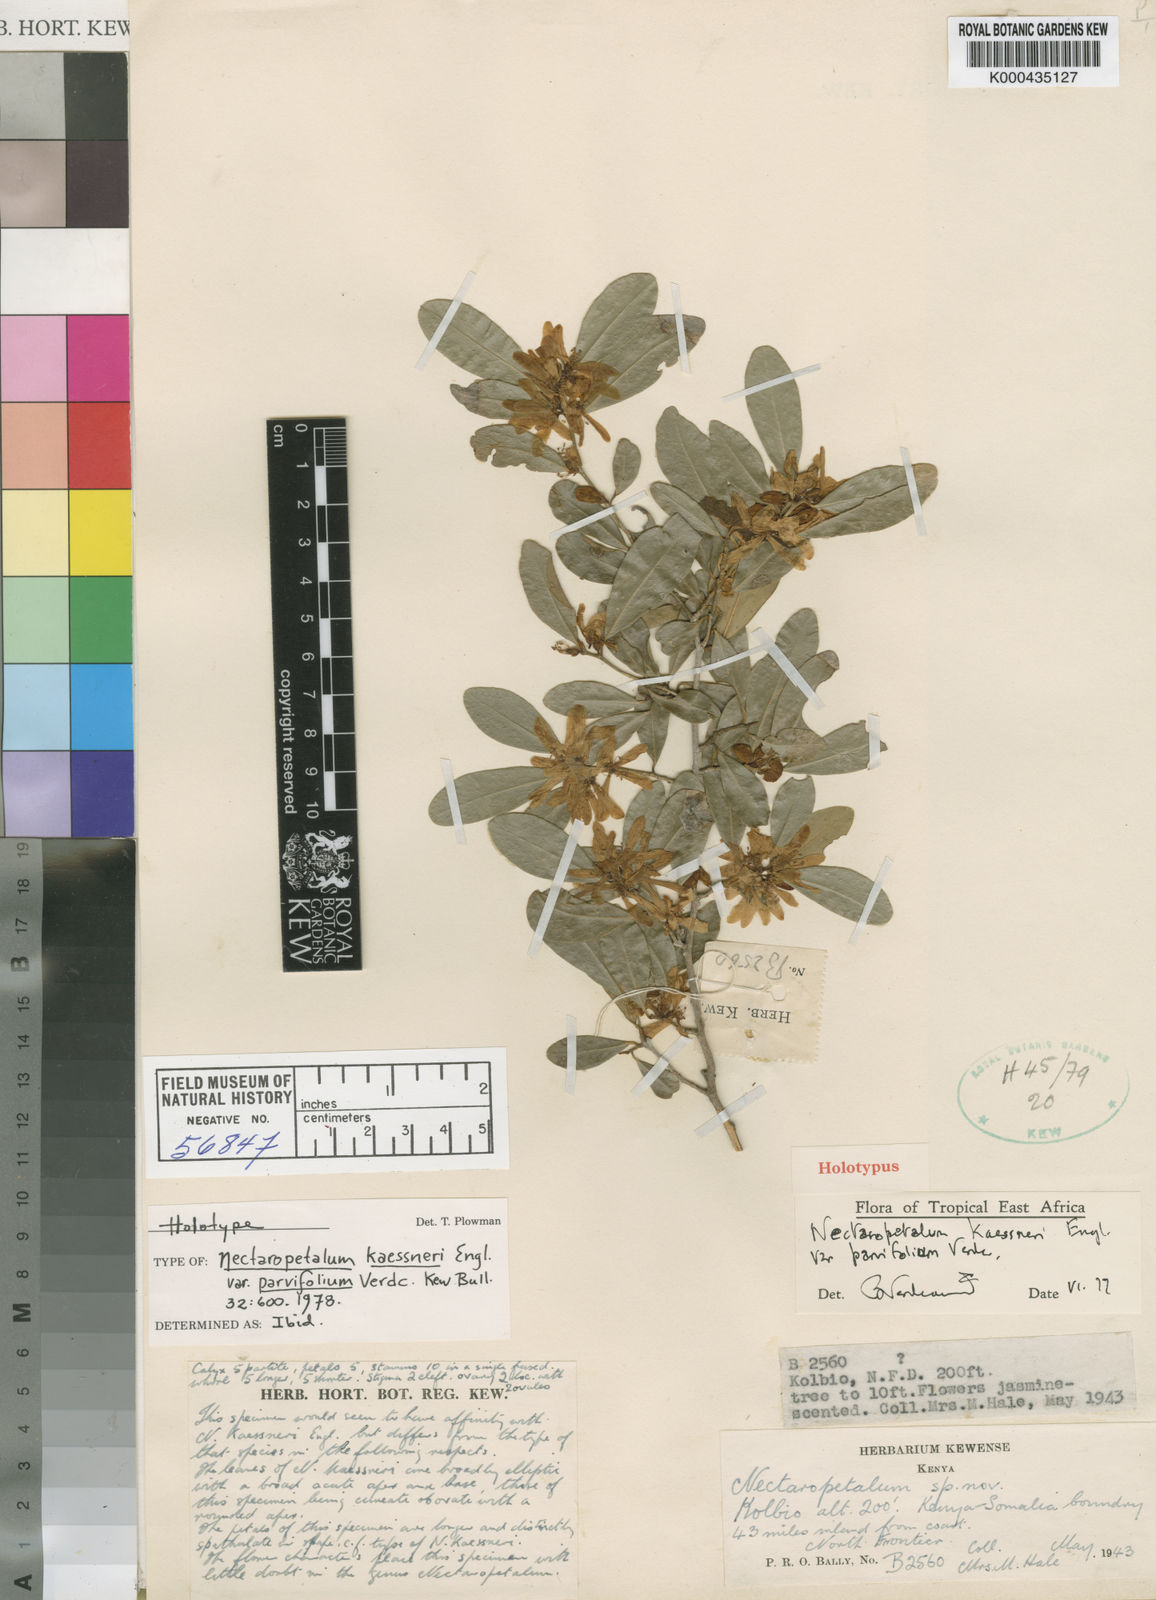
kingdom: Plantae
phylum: Tracheophyta
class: Magnoliopsida
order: Malpighiales
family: Erythroxylaceae
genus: Nectaropetalum
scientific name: Nectaropetalum kaessneri
